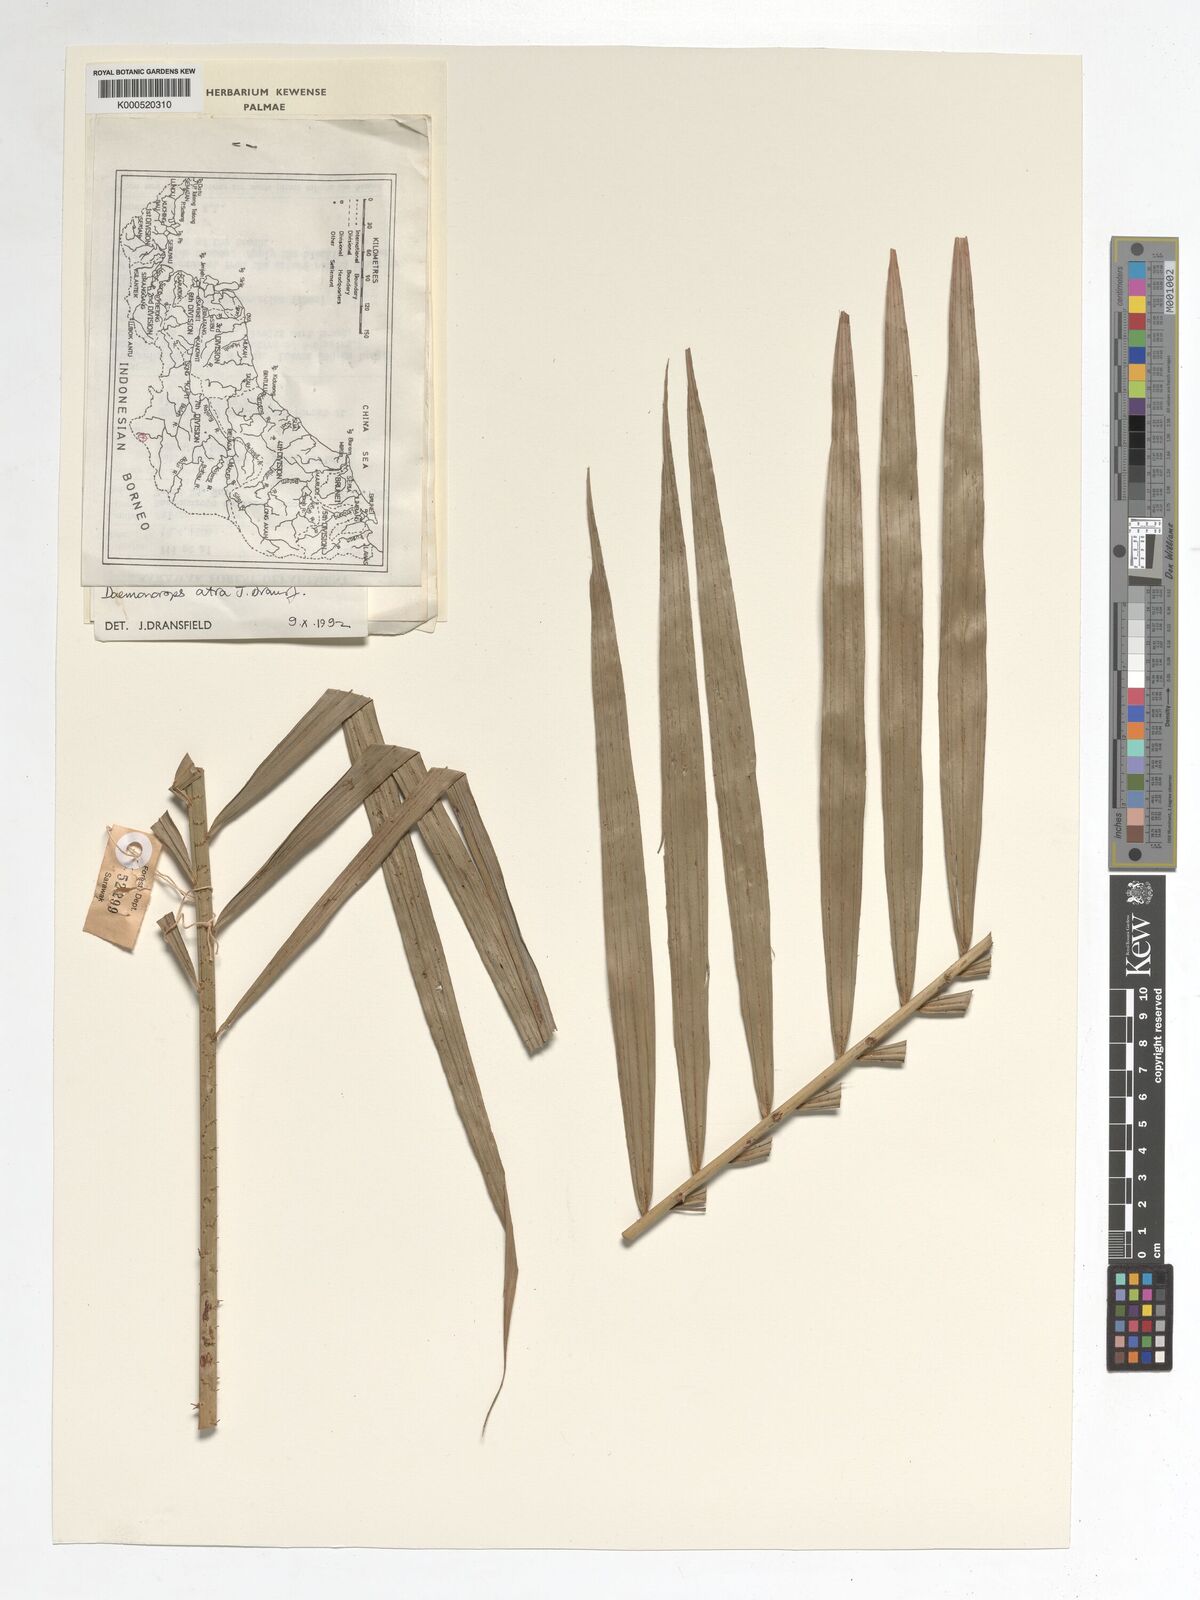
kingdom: Plantae
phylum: Tracheophyta
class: Liliopsida
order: Arecales
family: Arecaceae
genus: Calamus
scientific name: Calamus ater
